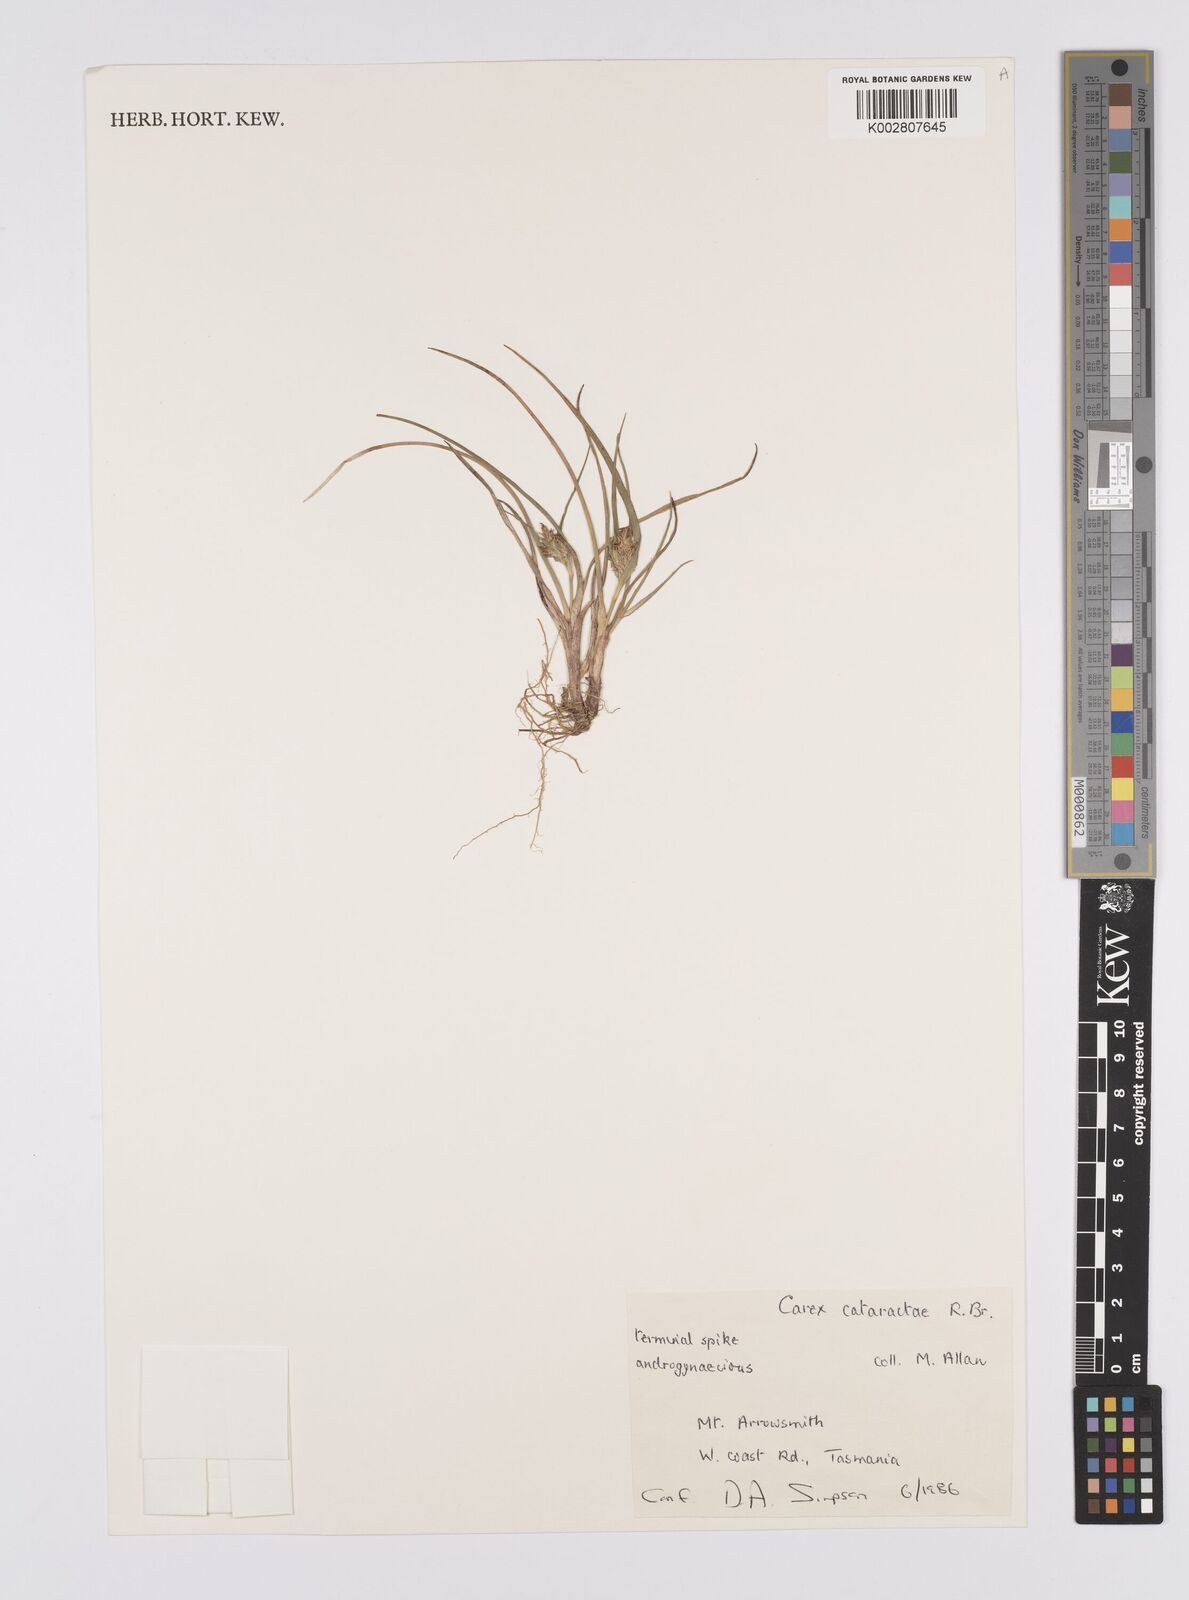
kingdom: Plantae
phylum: Tracheophyta
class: Liliopsida
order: Poales
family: Cyperaceae
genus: Carex
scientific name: Carex cataractae
